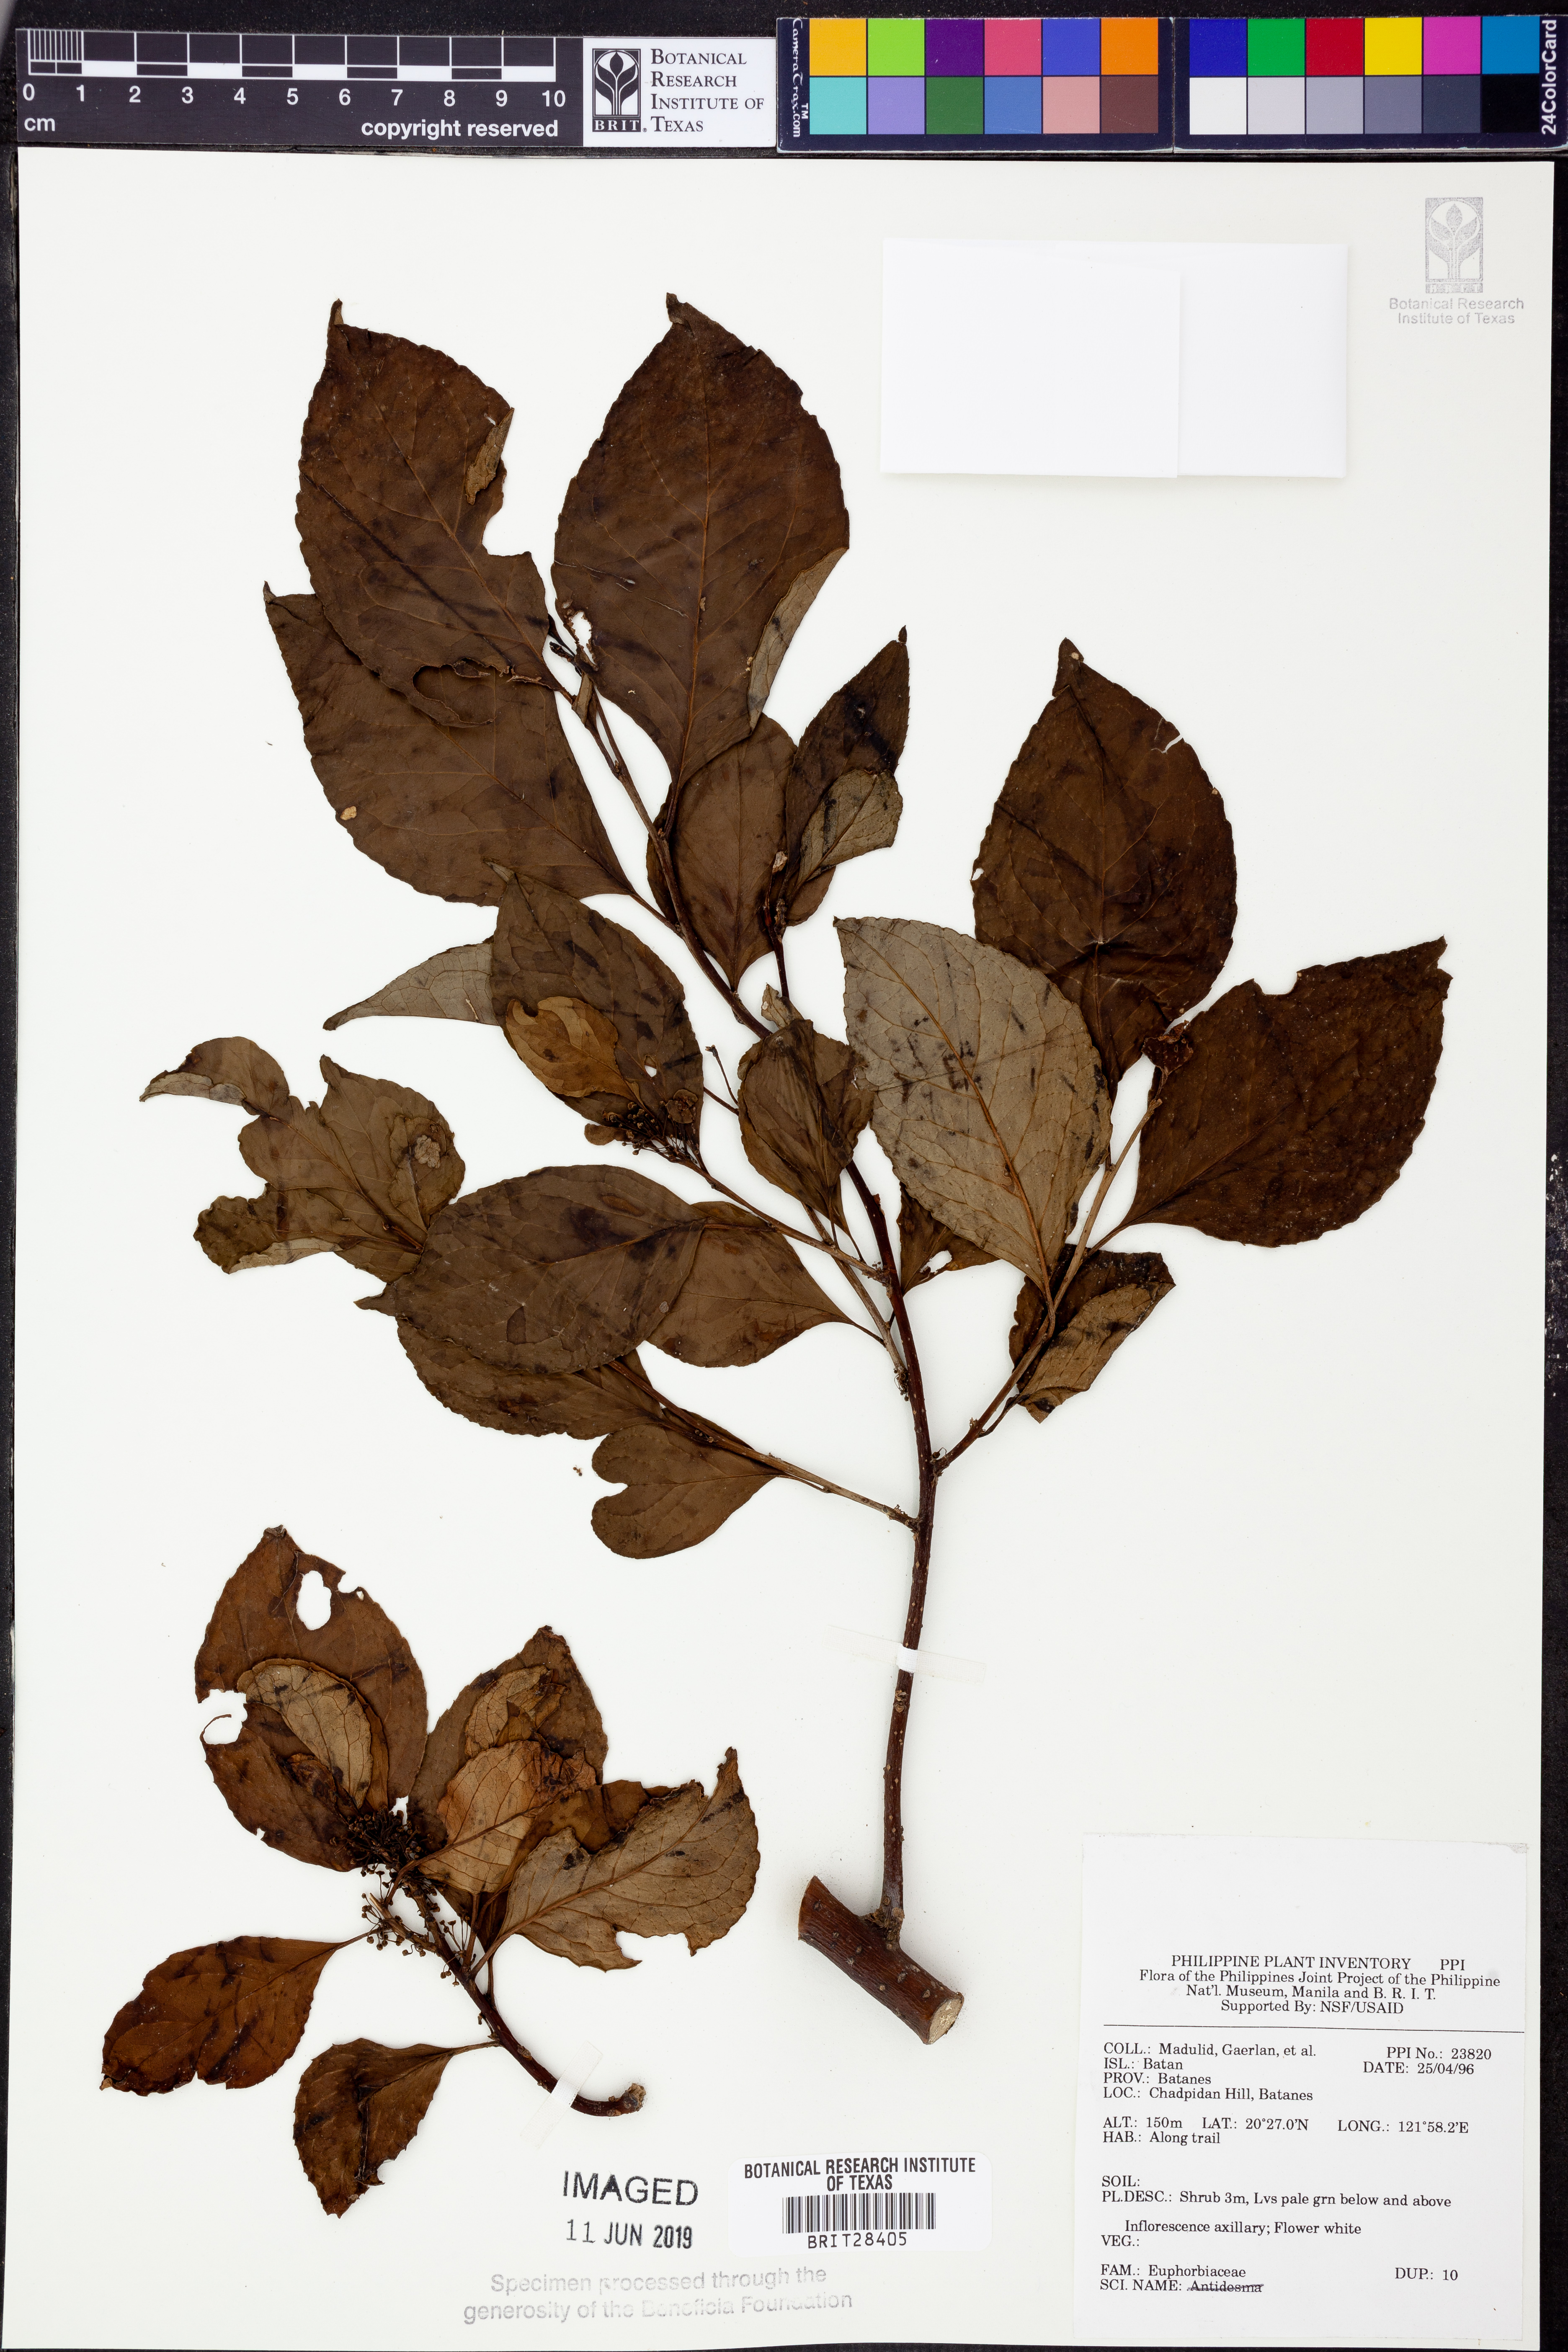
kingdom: Plantae
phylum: Tracheophyta
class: Magnoliopsida
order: Malpighiales
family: Euphorbiaceae
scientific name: Euphorbiaceae
